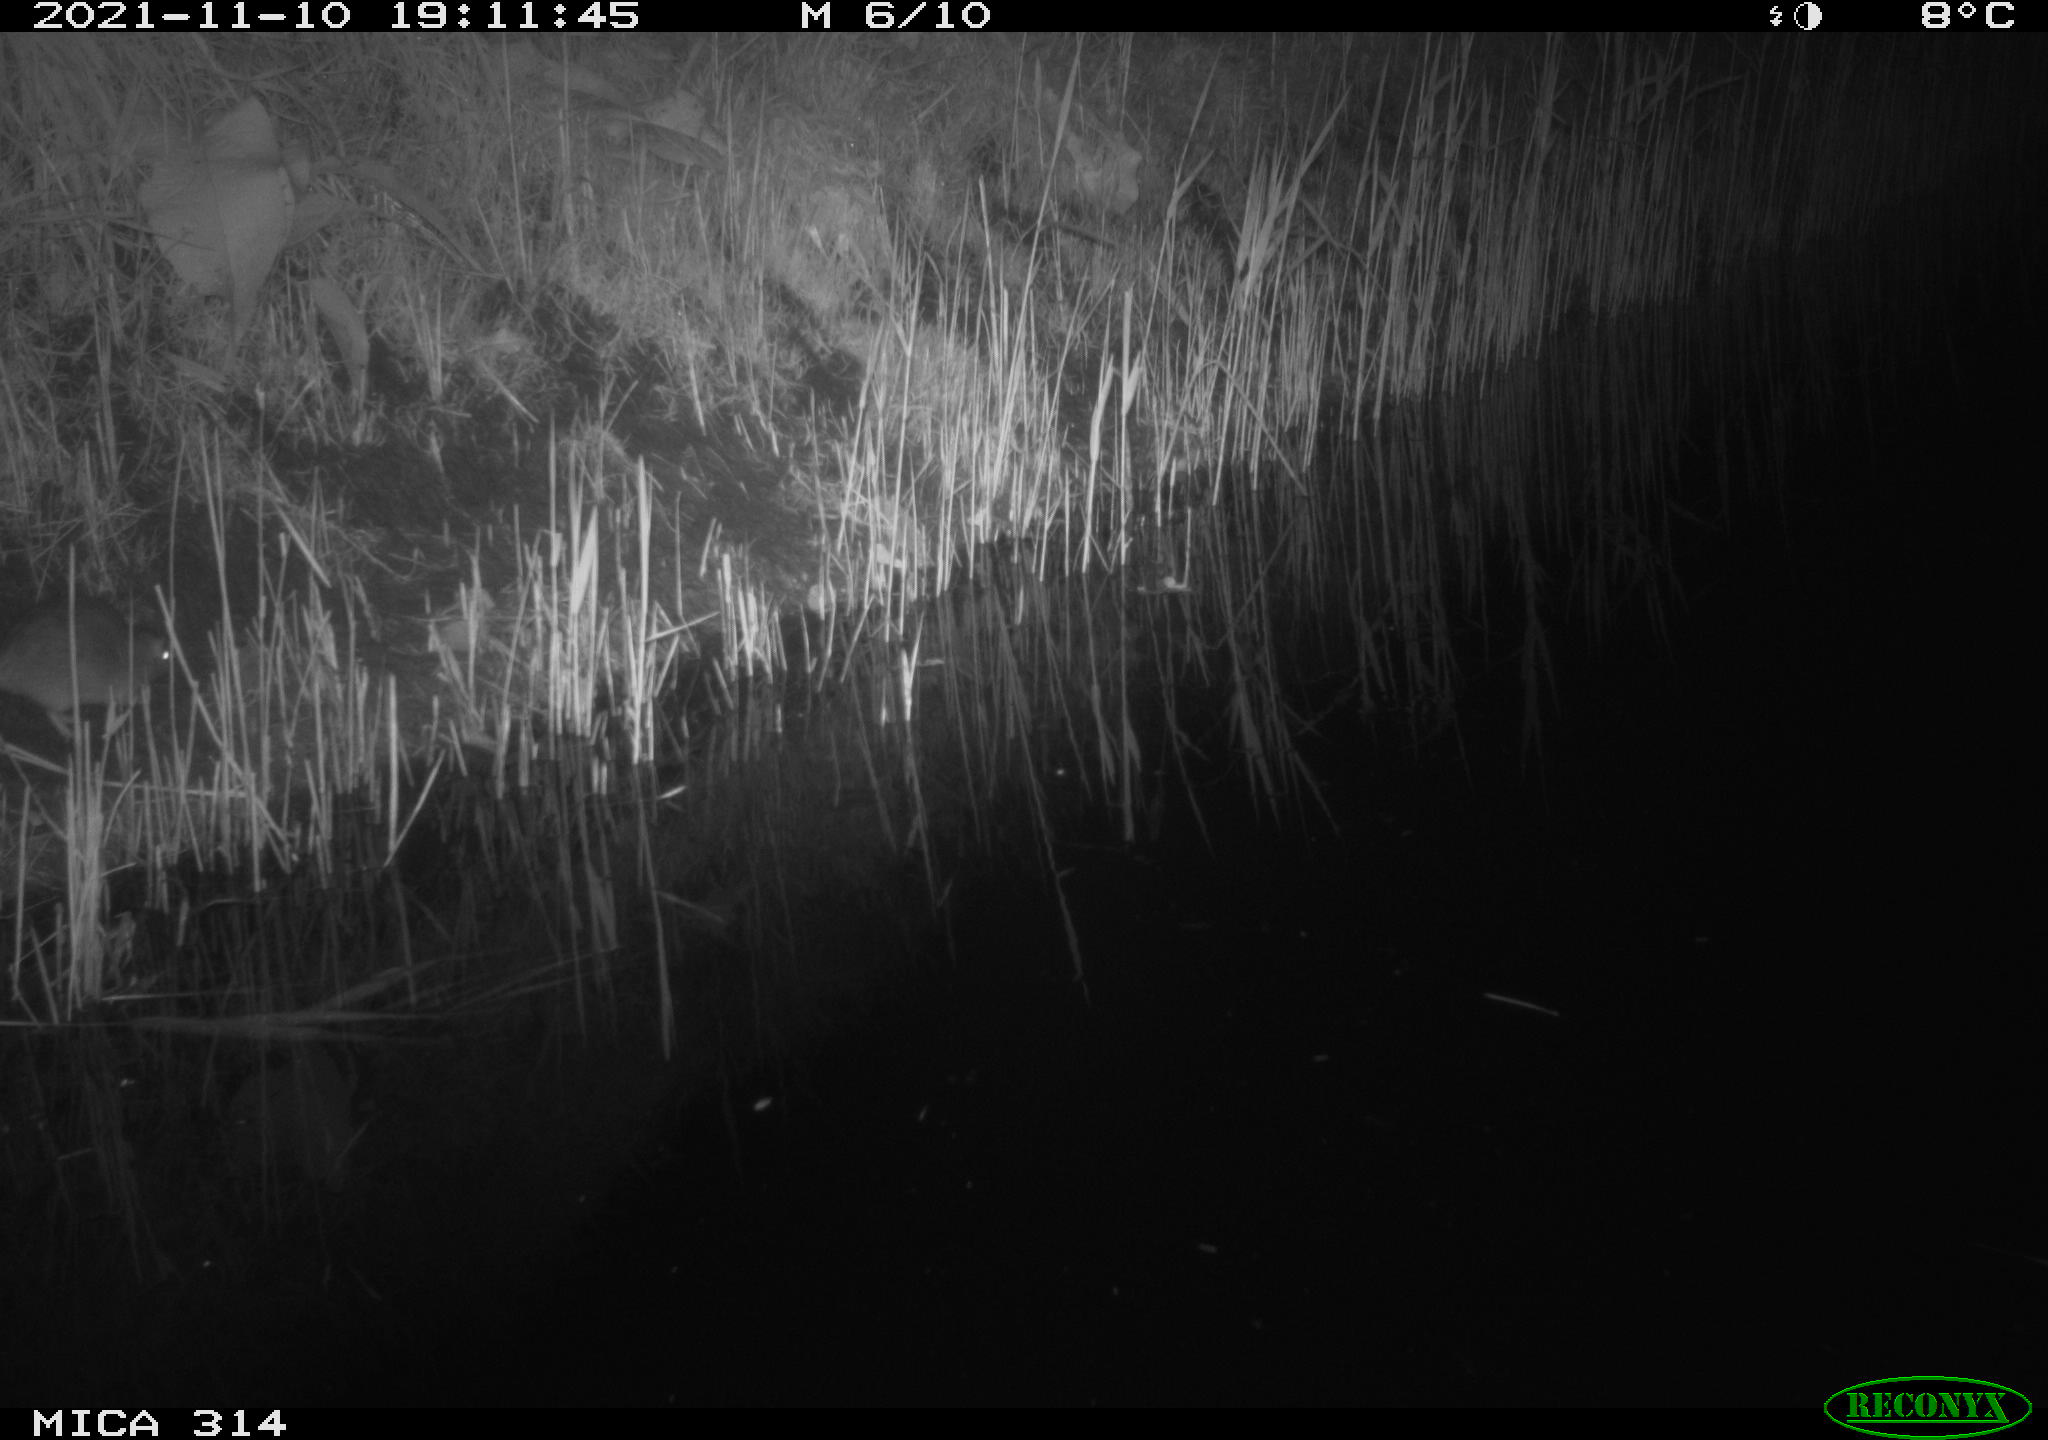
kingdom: Animalia
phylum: Chordata
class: Mammalia
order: Rodentia
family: Muridae
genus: Rattus
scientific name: Rattus norvegicus
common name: Brown rat
